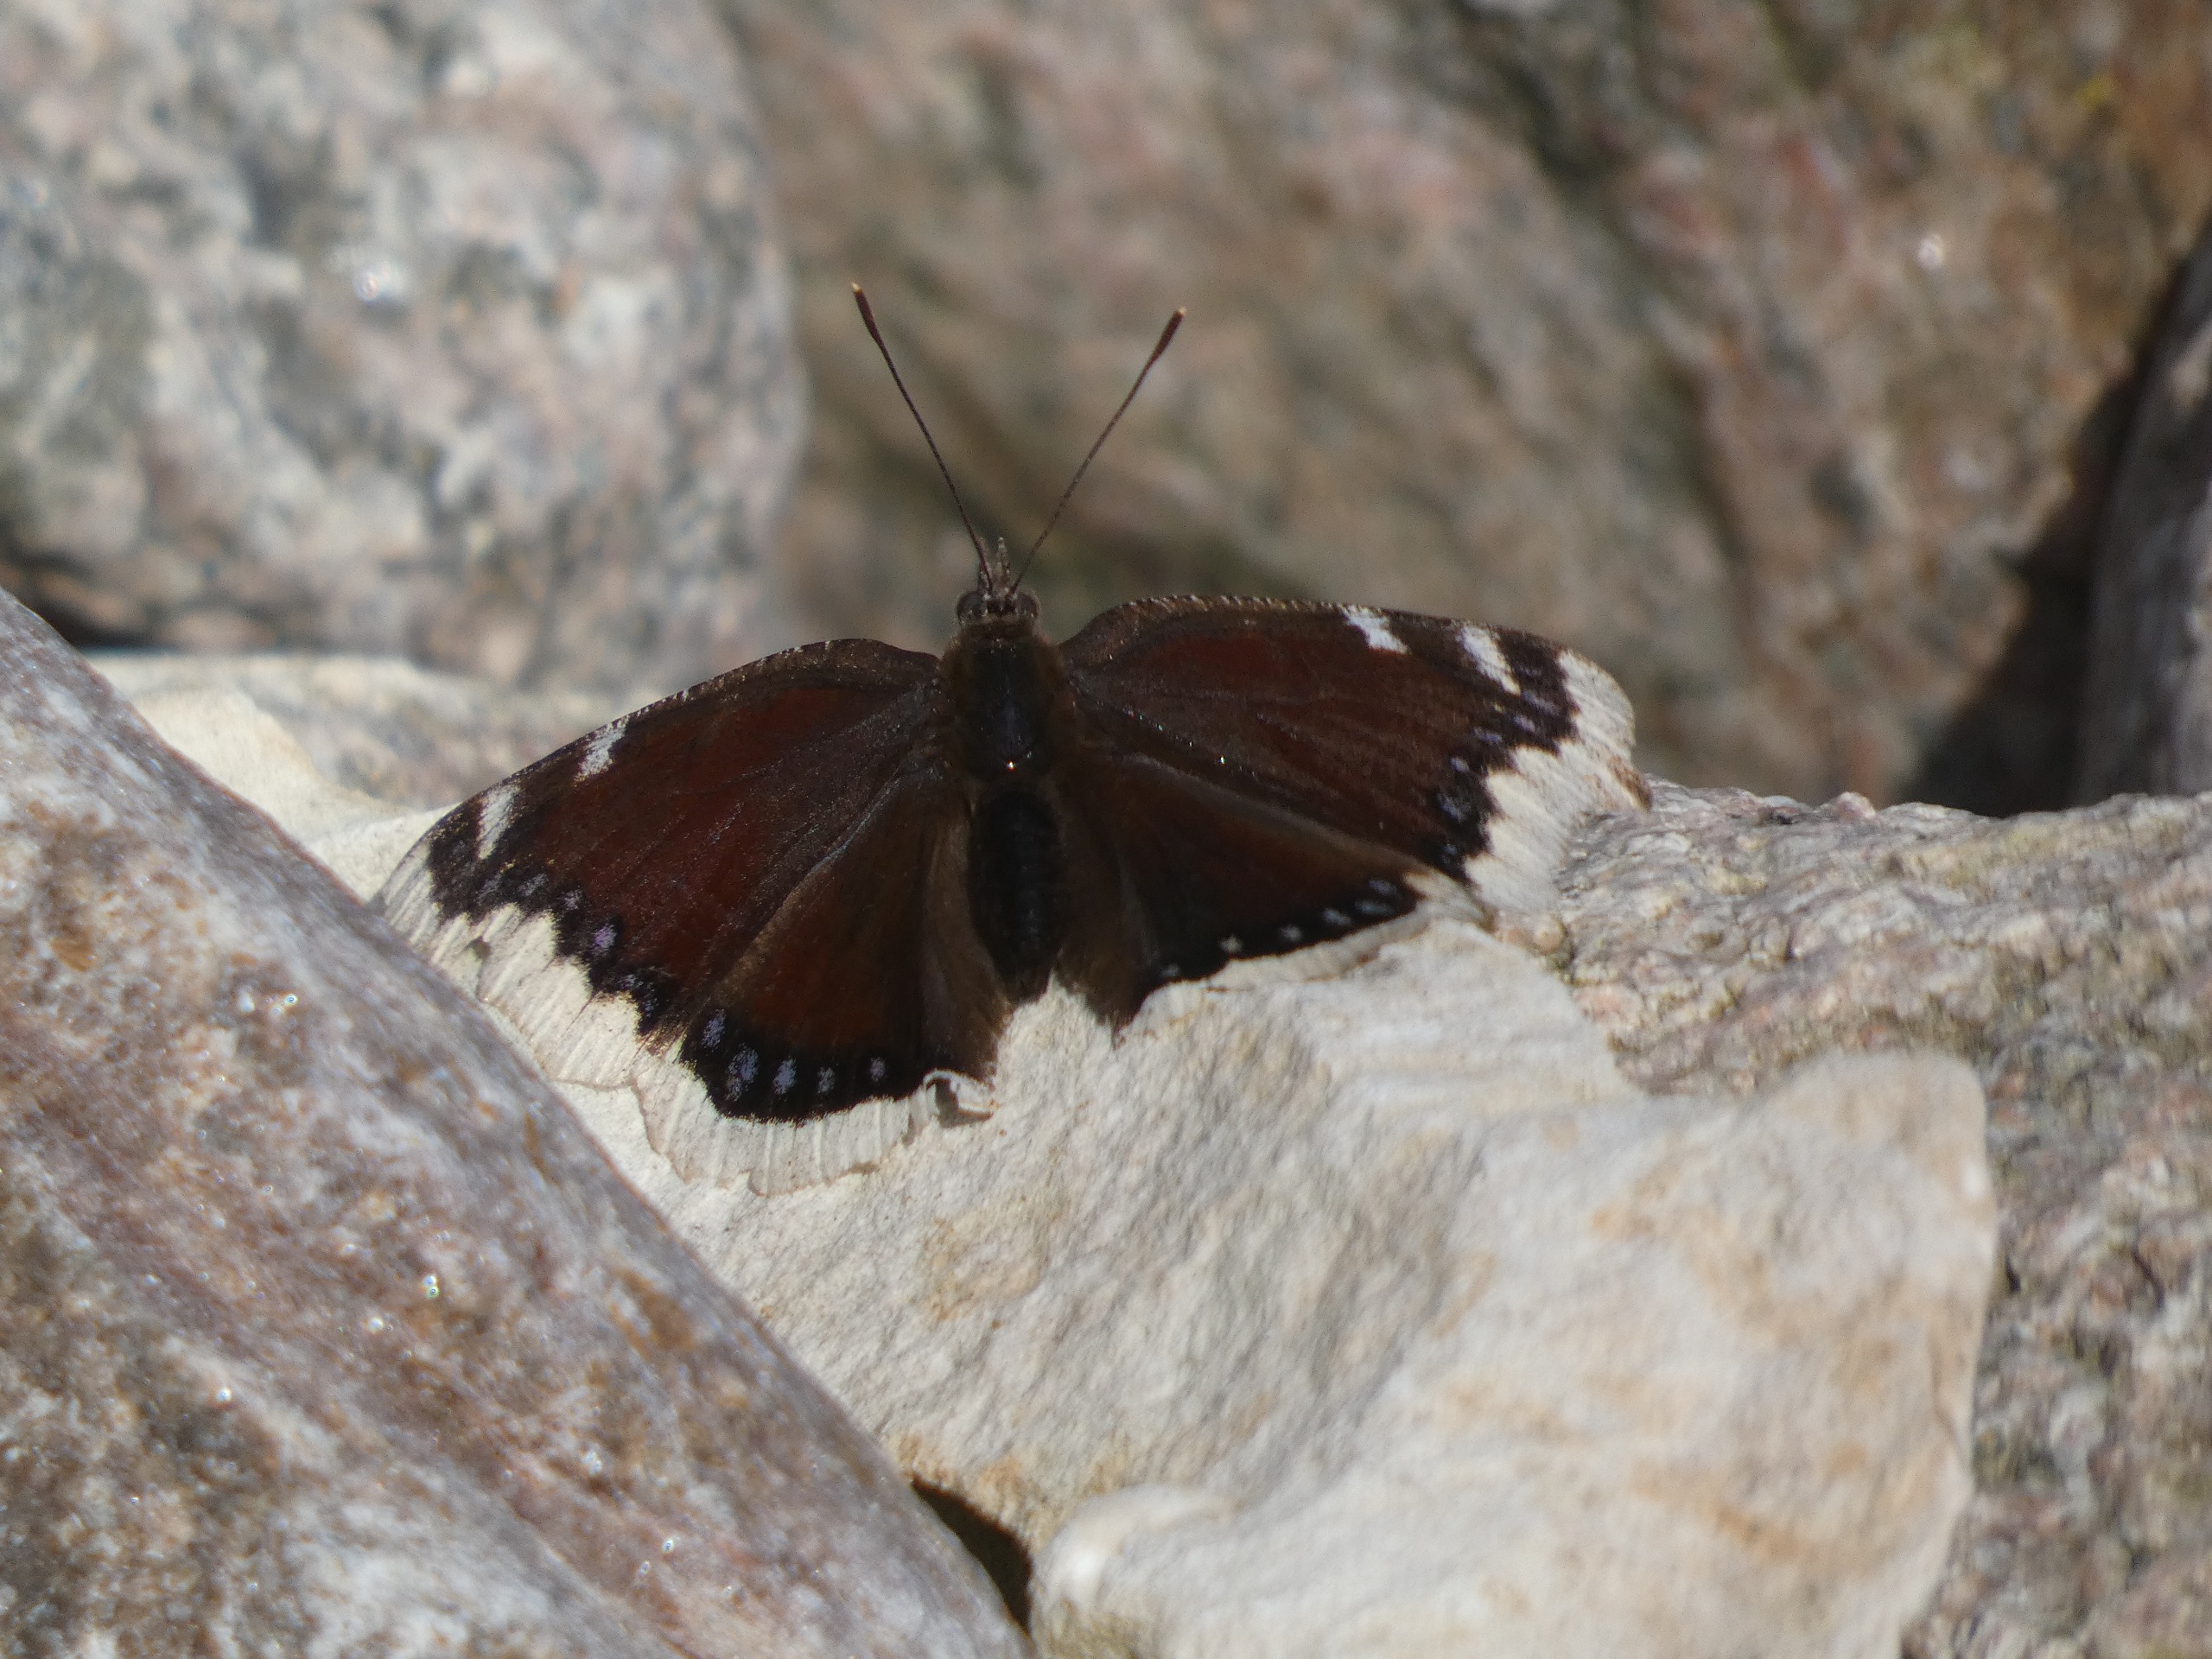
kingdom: Animalia
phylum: Arthropoda
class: Insecta
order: Lepidoptera
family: Nymphalidae
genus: Nymphalis
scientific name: Nymphalis antiopa
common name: Sørgekåbe
